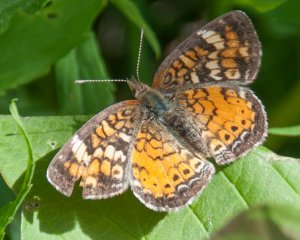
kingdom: Animalia
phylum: Arthropoda
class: Insecta
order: Lepidoptera
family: Nymphalidae
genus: Phyciodes
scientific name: Phyciodes tharos
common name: Northern Crescent
